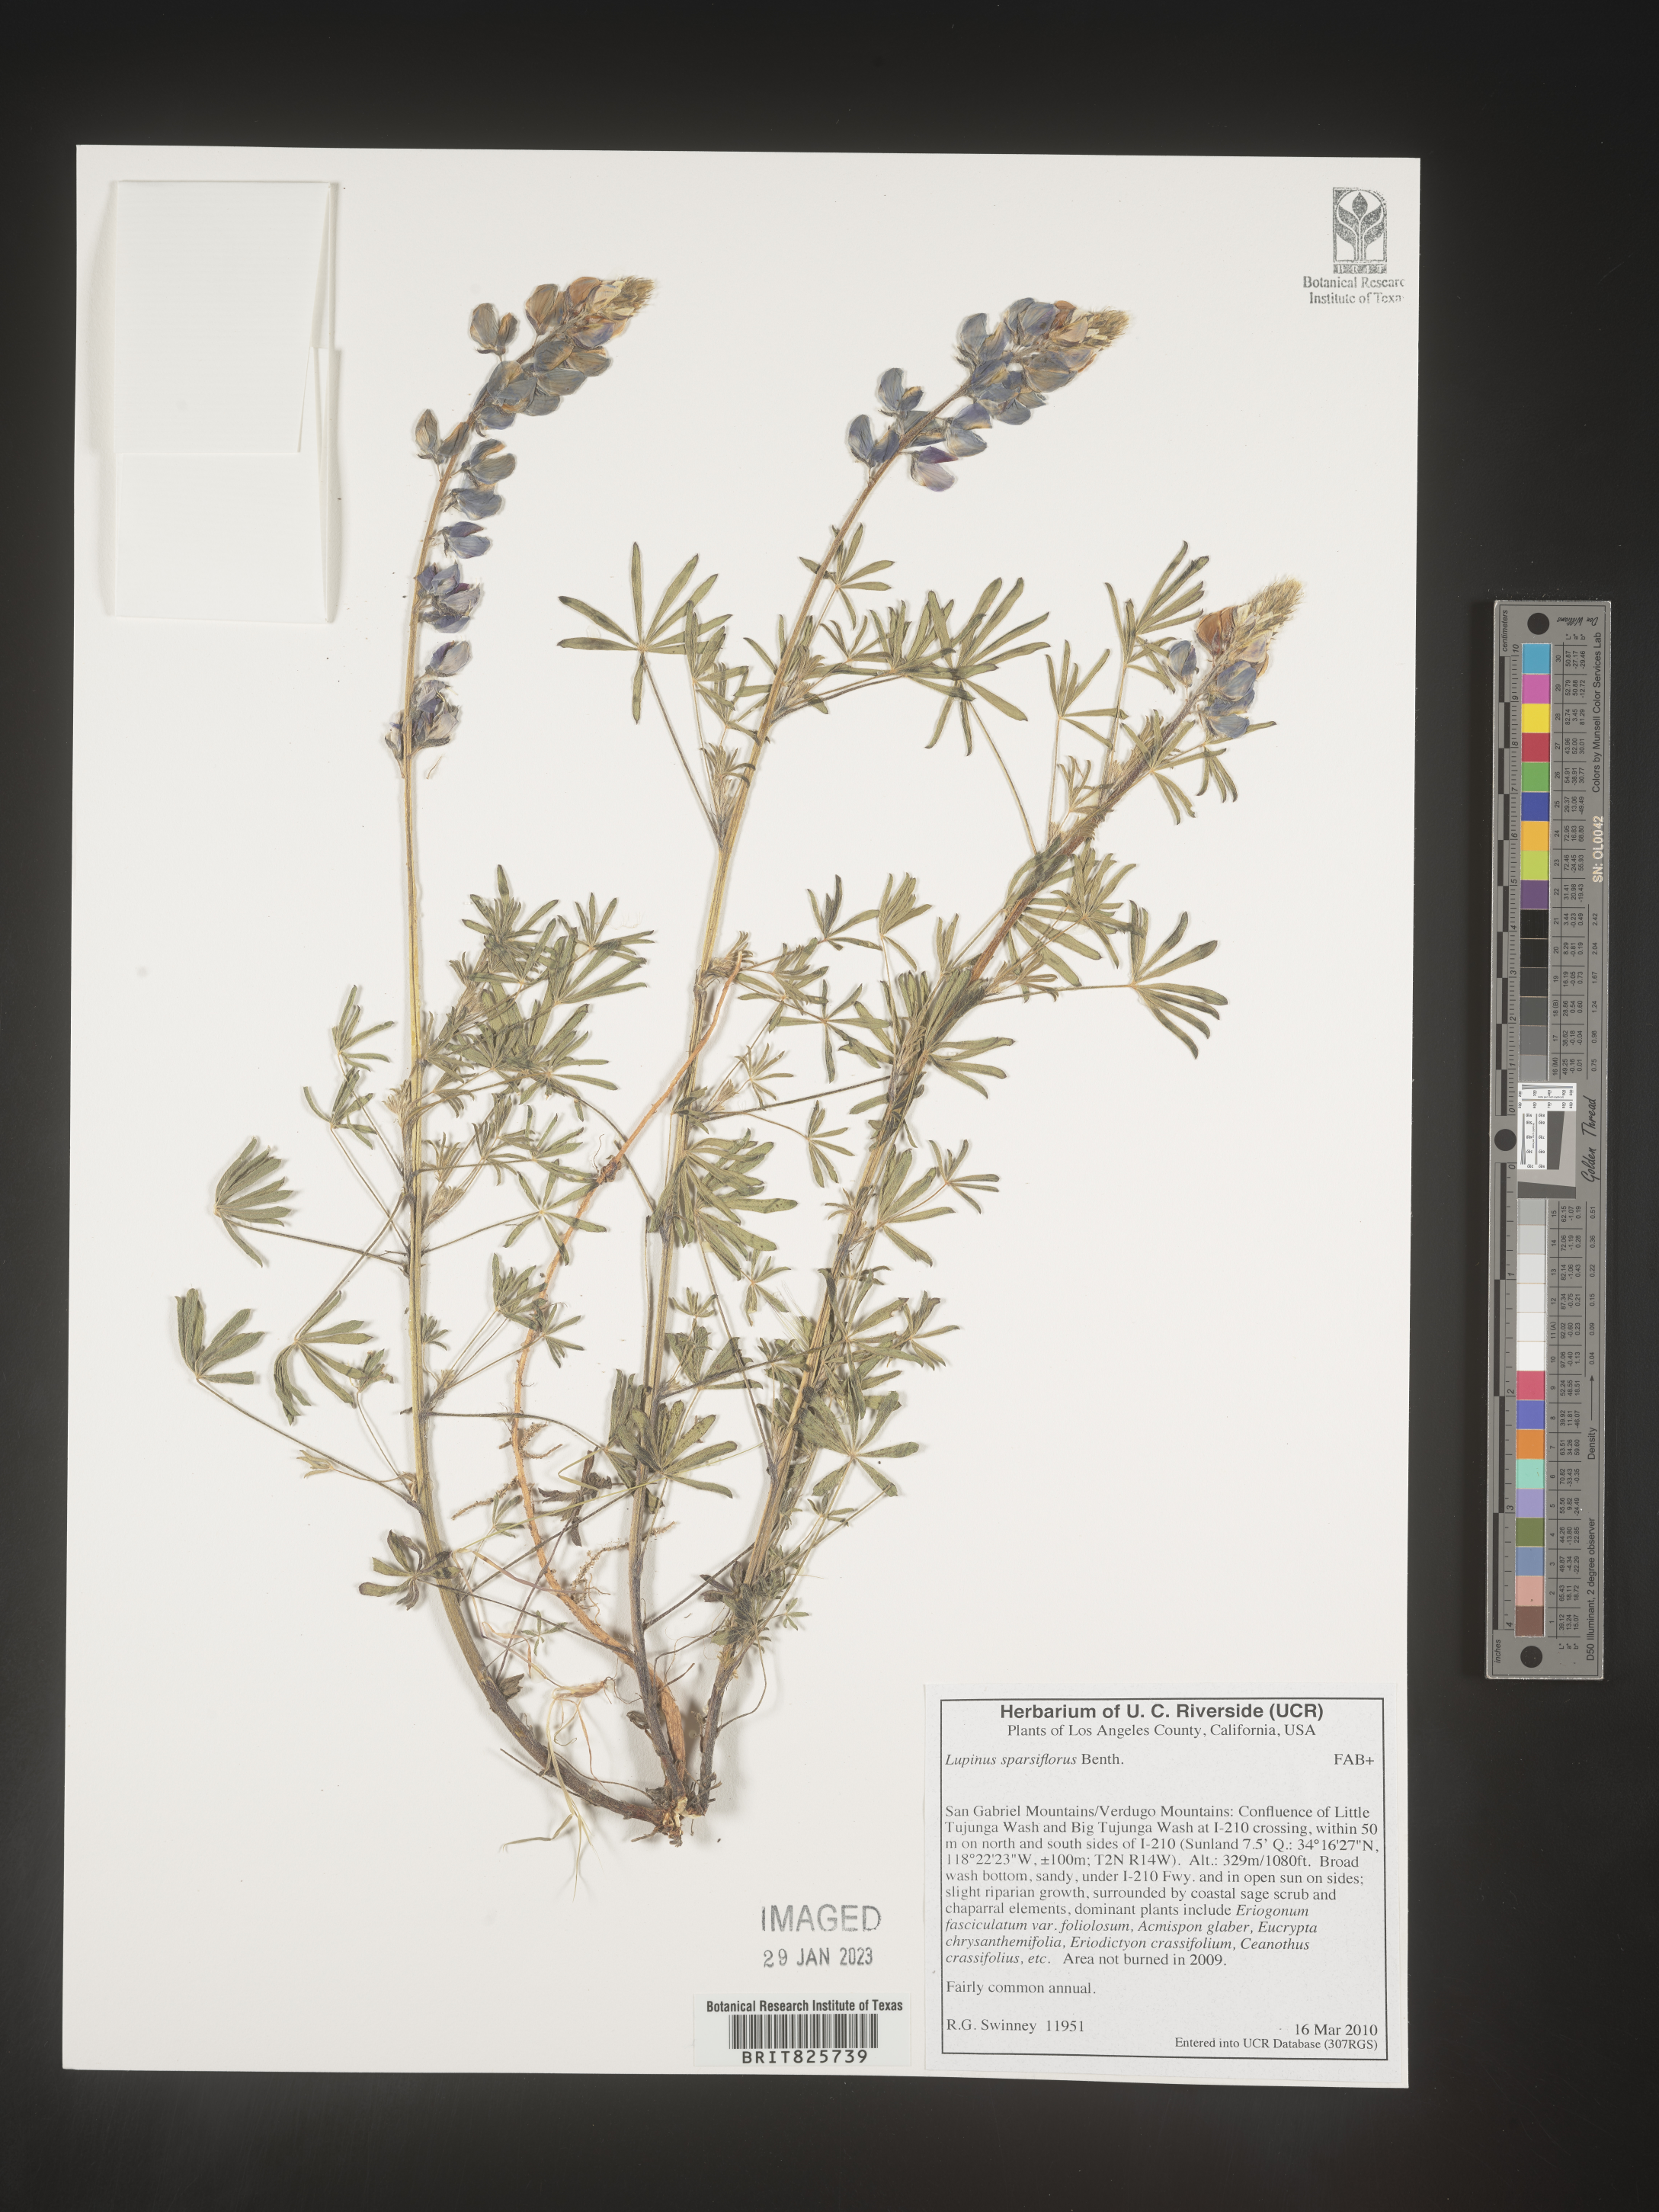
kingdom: Plantae
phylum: Tracheophyta
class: Magnoliopsida
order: Fabales
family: Fabaceae
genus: Lupinus
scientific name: Lupinus
